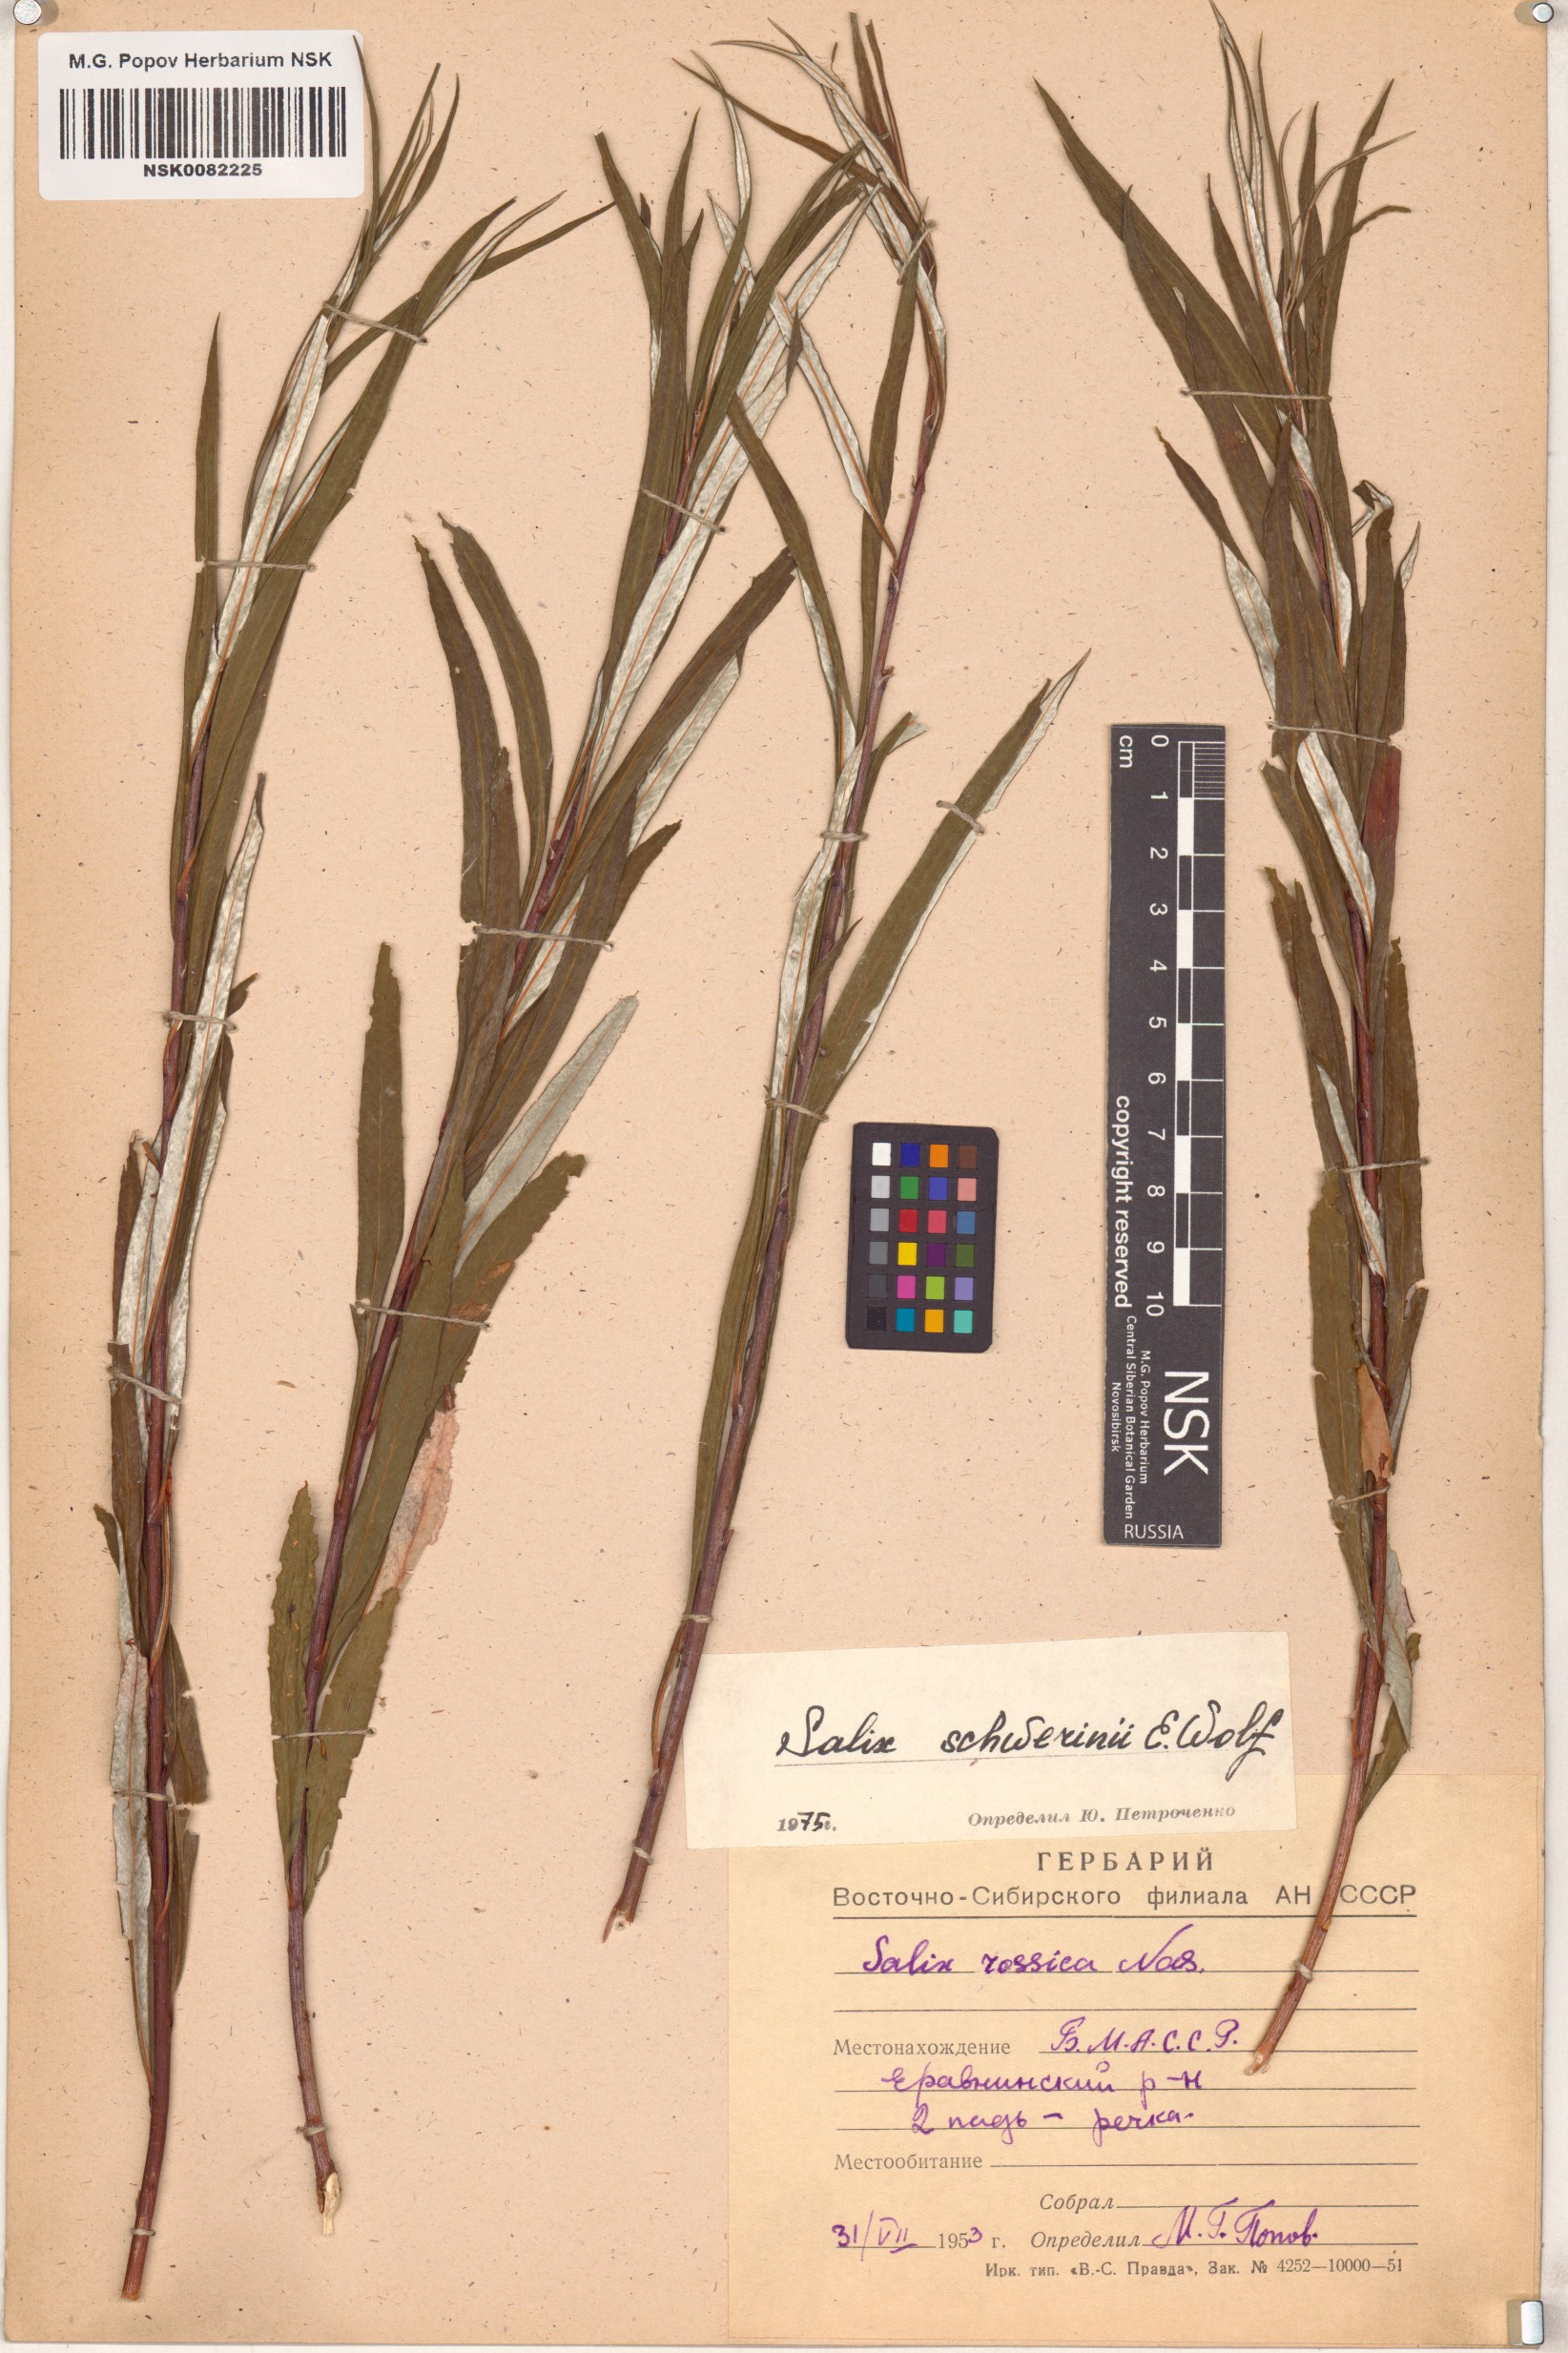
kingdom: Plantae
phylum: Tracheophyta
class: Magnoliopsida
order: Malpighiales
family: Salicaceae
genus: Salix
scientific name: Salix schwerinii
